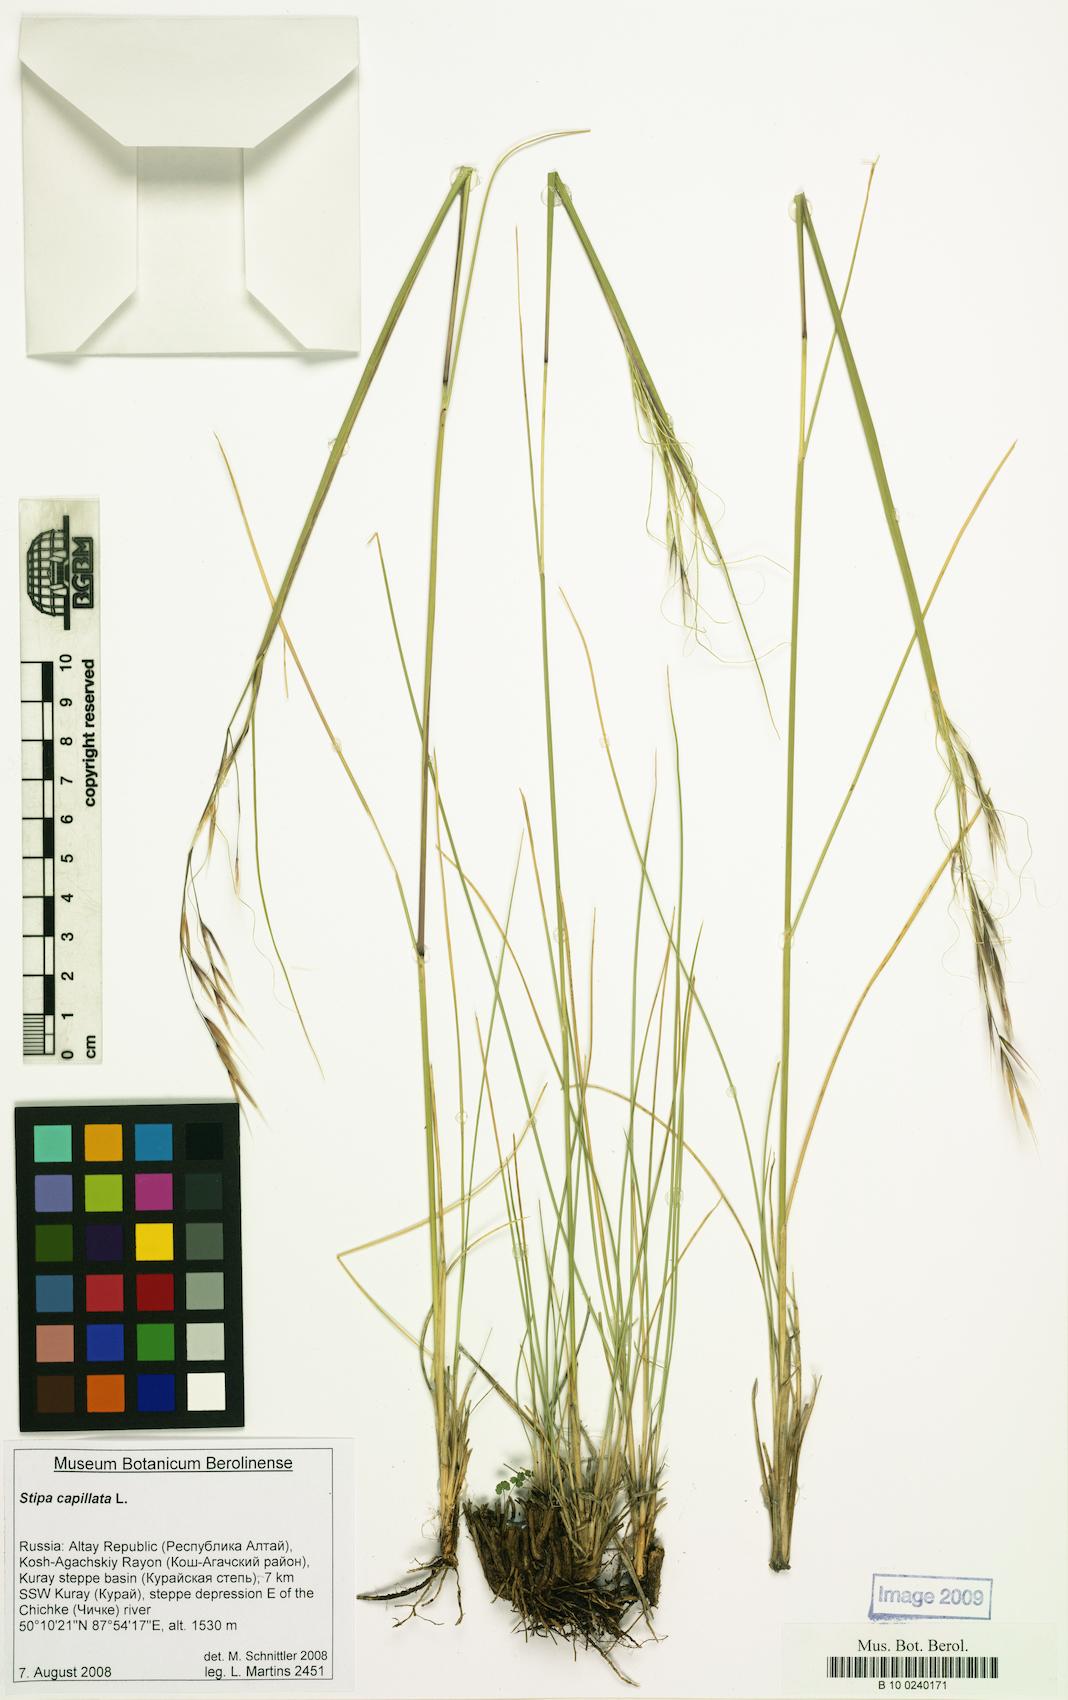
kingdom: Plantae
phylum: Tracheophyta
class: Liliopsida
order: Poales
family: Poaceae
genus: Stipa
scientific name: Stipa capillata
